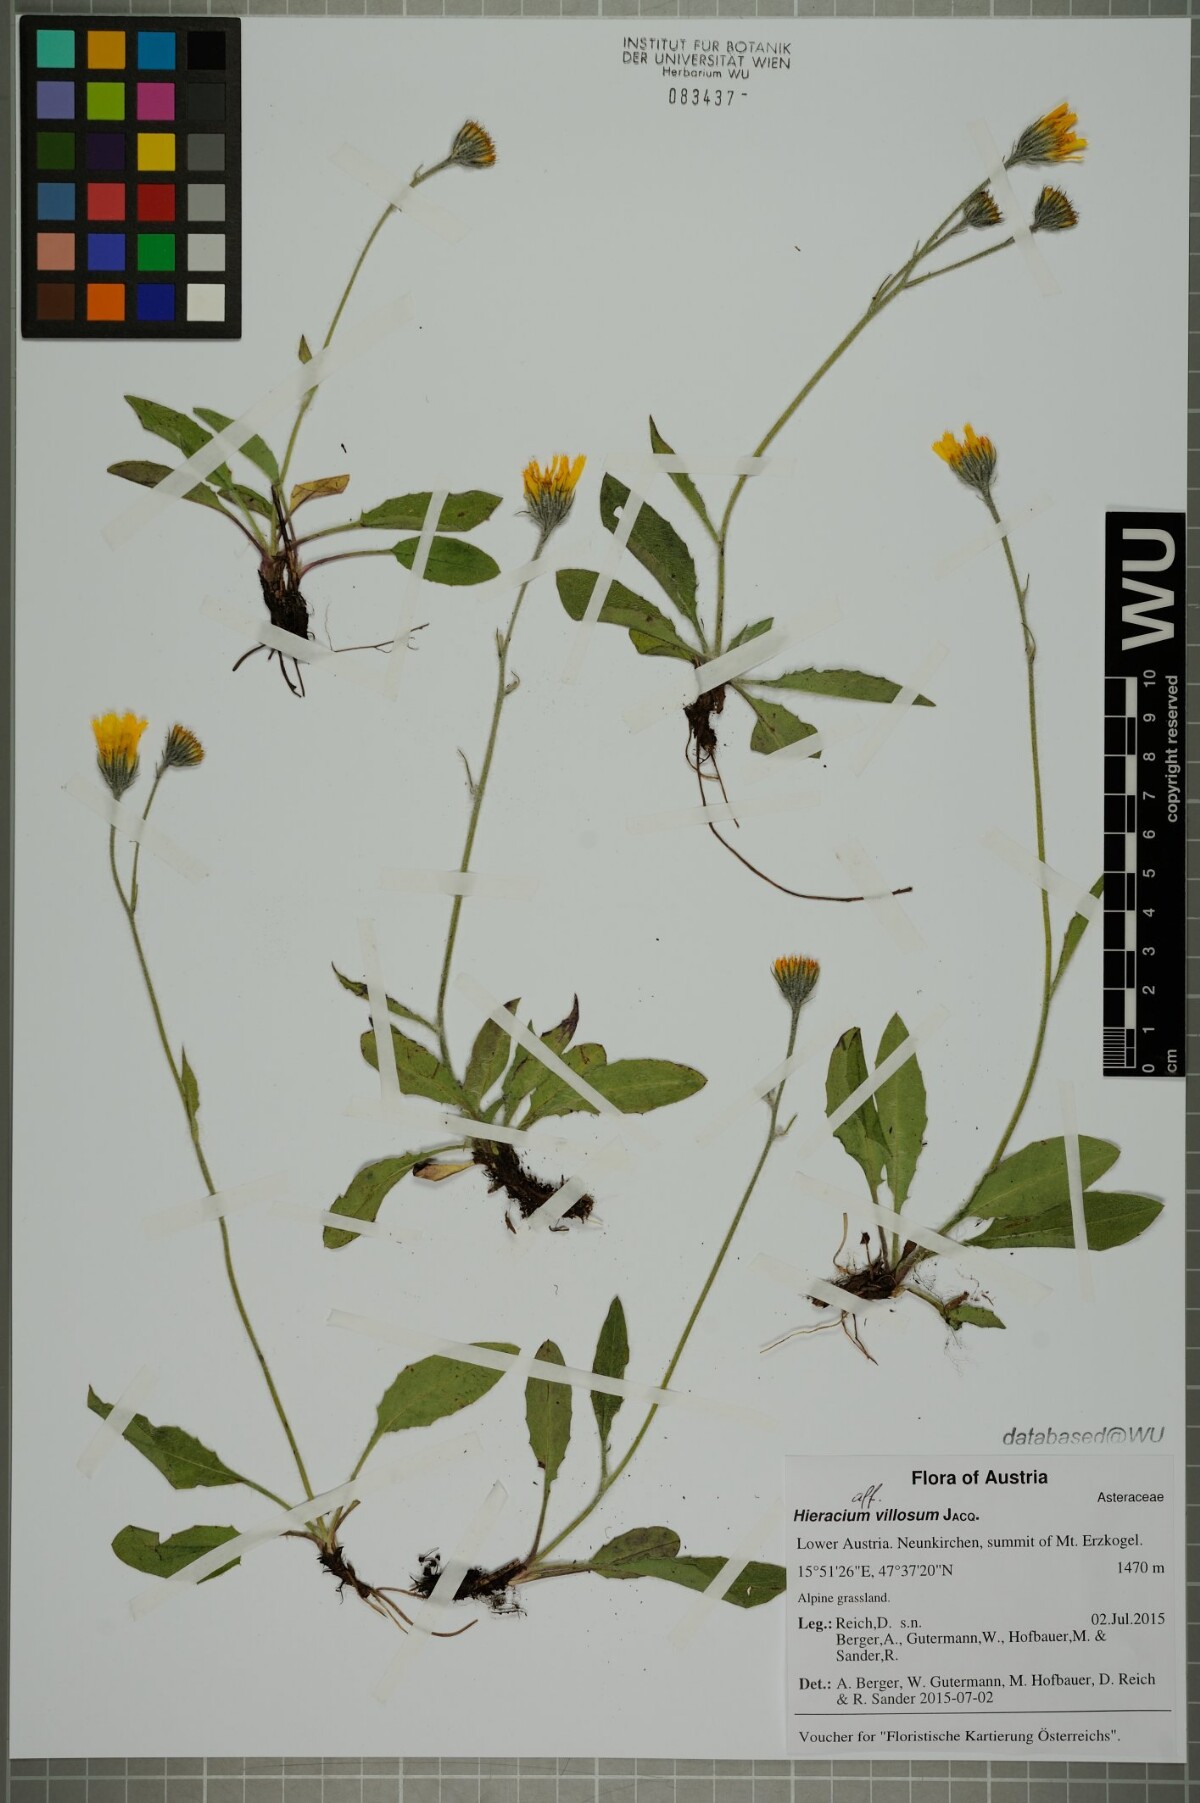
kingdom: Plantae
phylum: Tracheophyta
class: Magnoliopsida
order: Asterales
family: Asteraceae
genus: Hieracium
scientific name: Hieracium villosum
